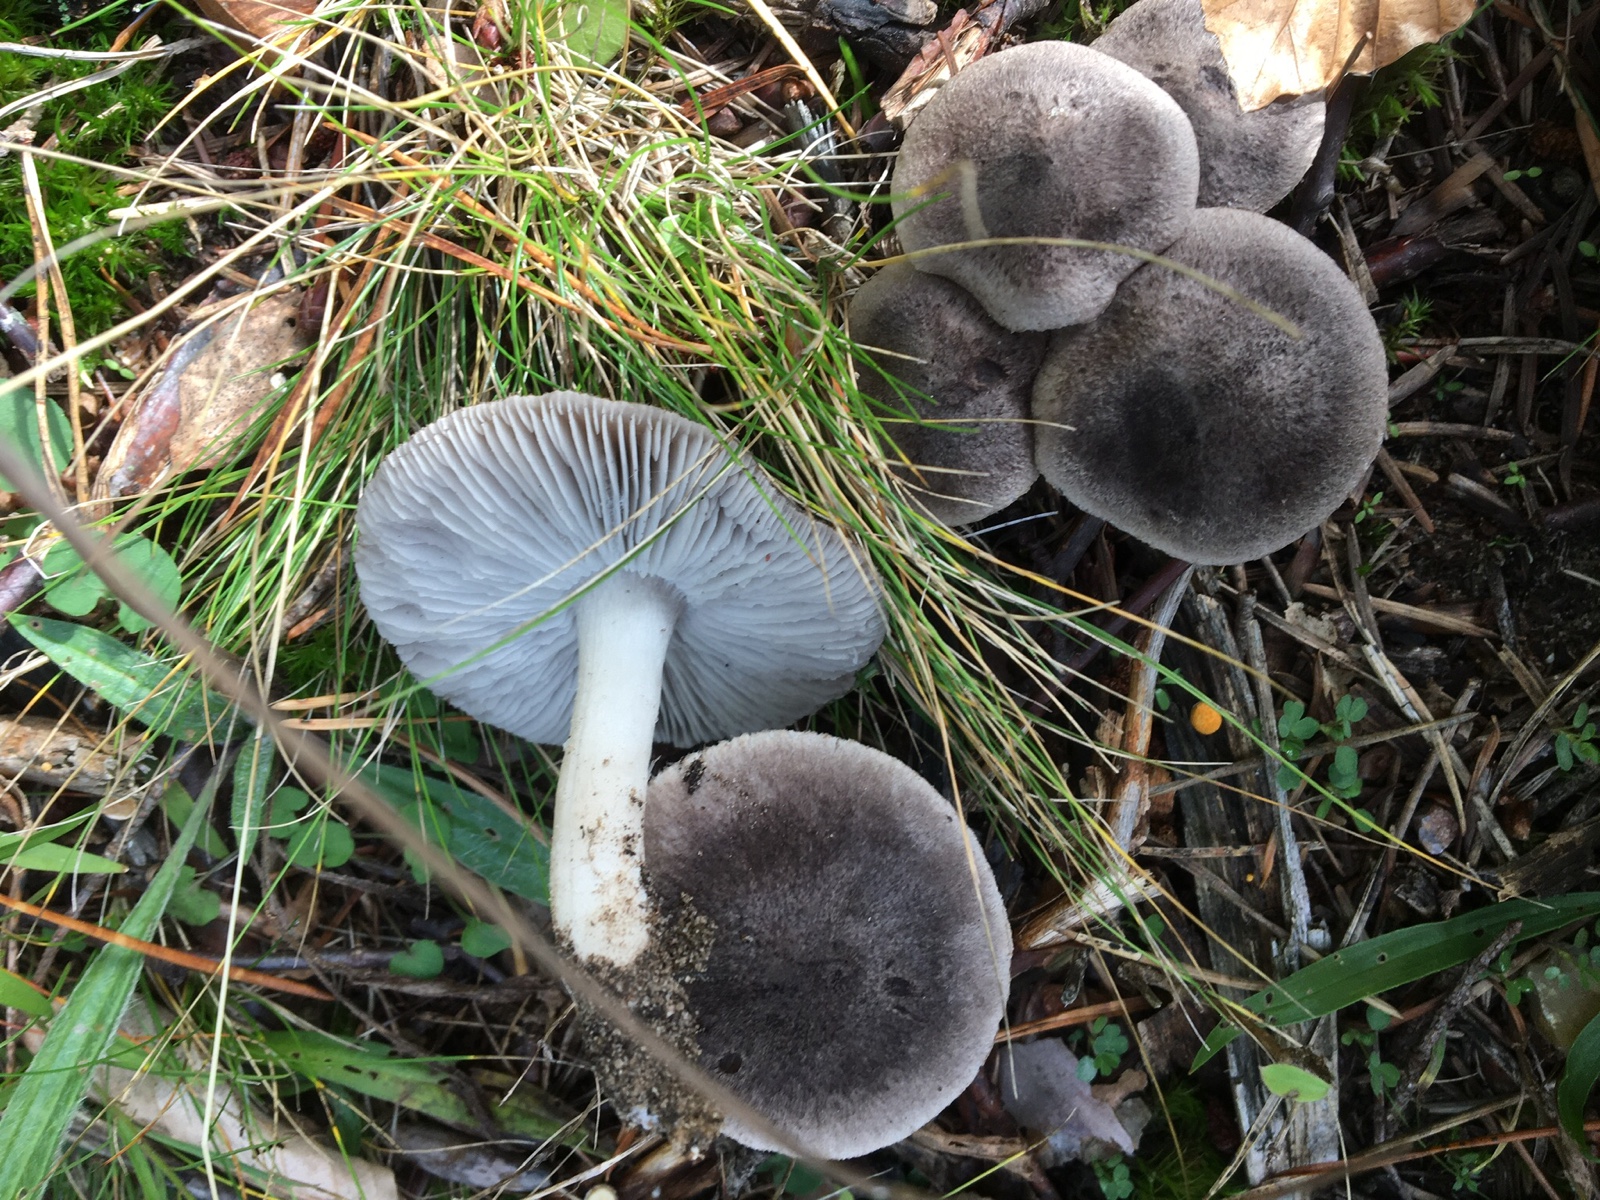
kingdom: Fungi
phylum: Basidiomycota
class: Agaricomycetes
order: Agaricales
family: Tricholomataceae
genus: Tricholoma
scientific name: Tricholoma terreum
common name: jordfarvet ridderhat
